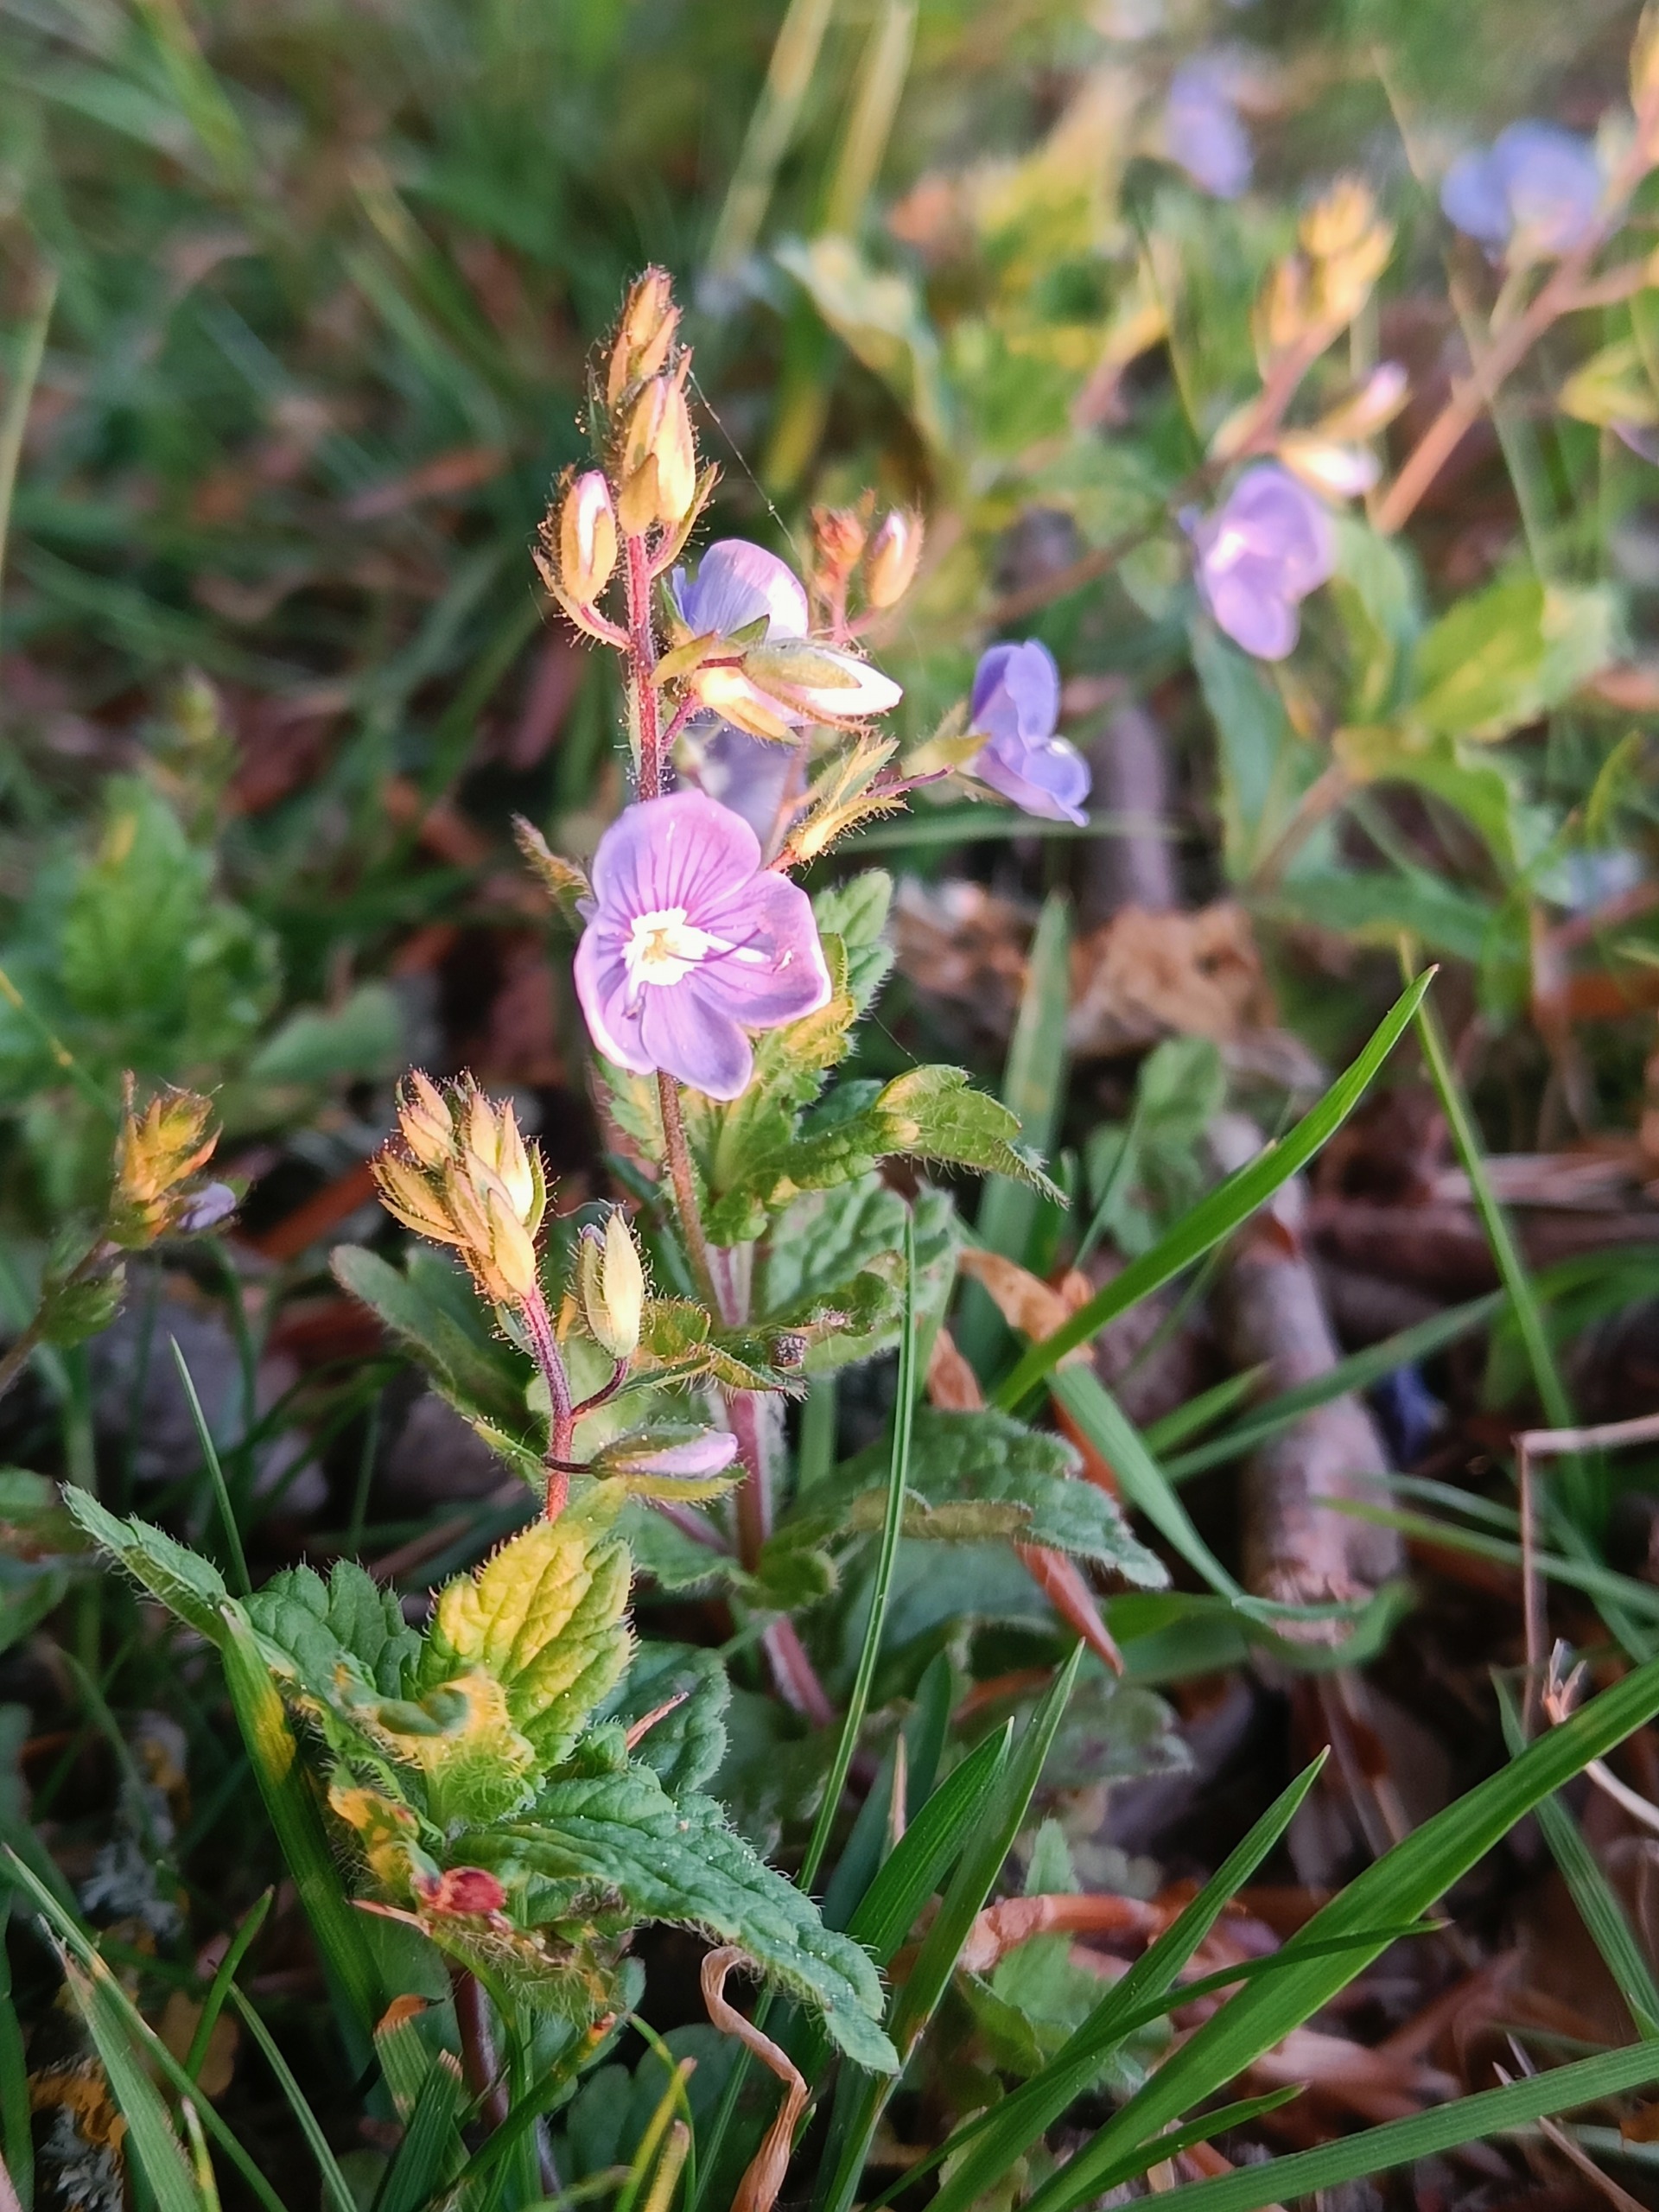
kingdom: Plantae
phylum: Tracheophyta
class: Magnoliopsida
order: Lamiales
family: Plantaginaceae
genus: Veronica
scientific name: Veronica chamaedrys
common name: Tveskægget ærenpris
